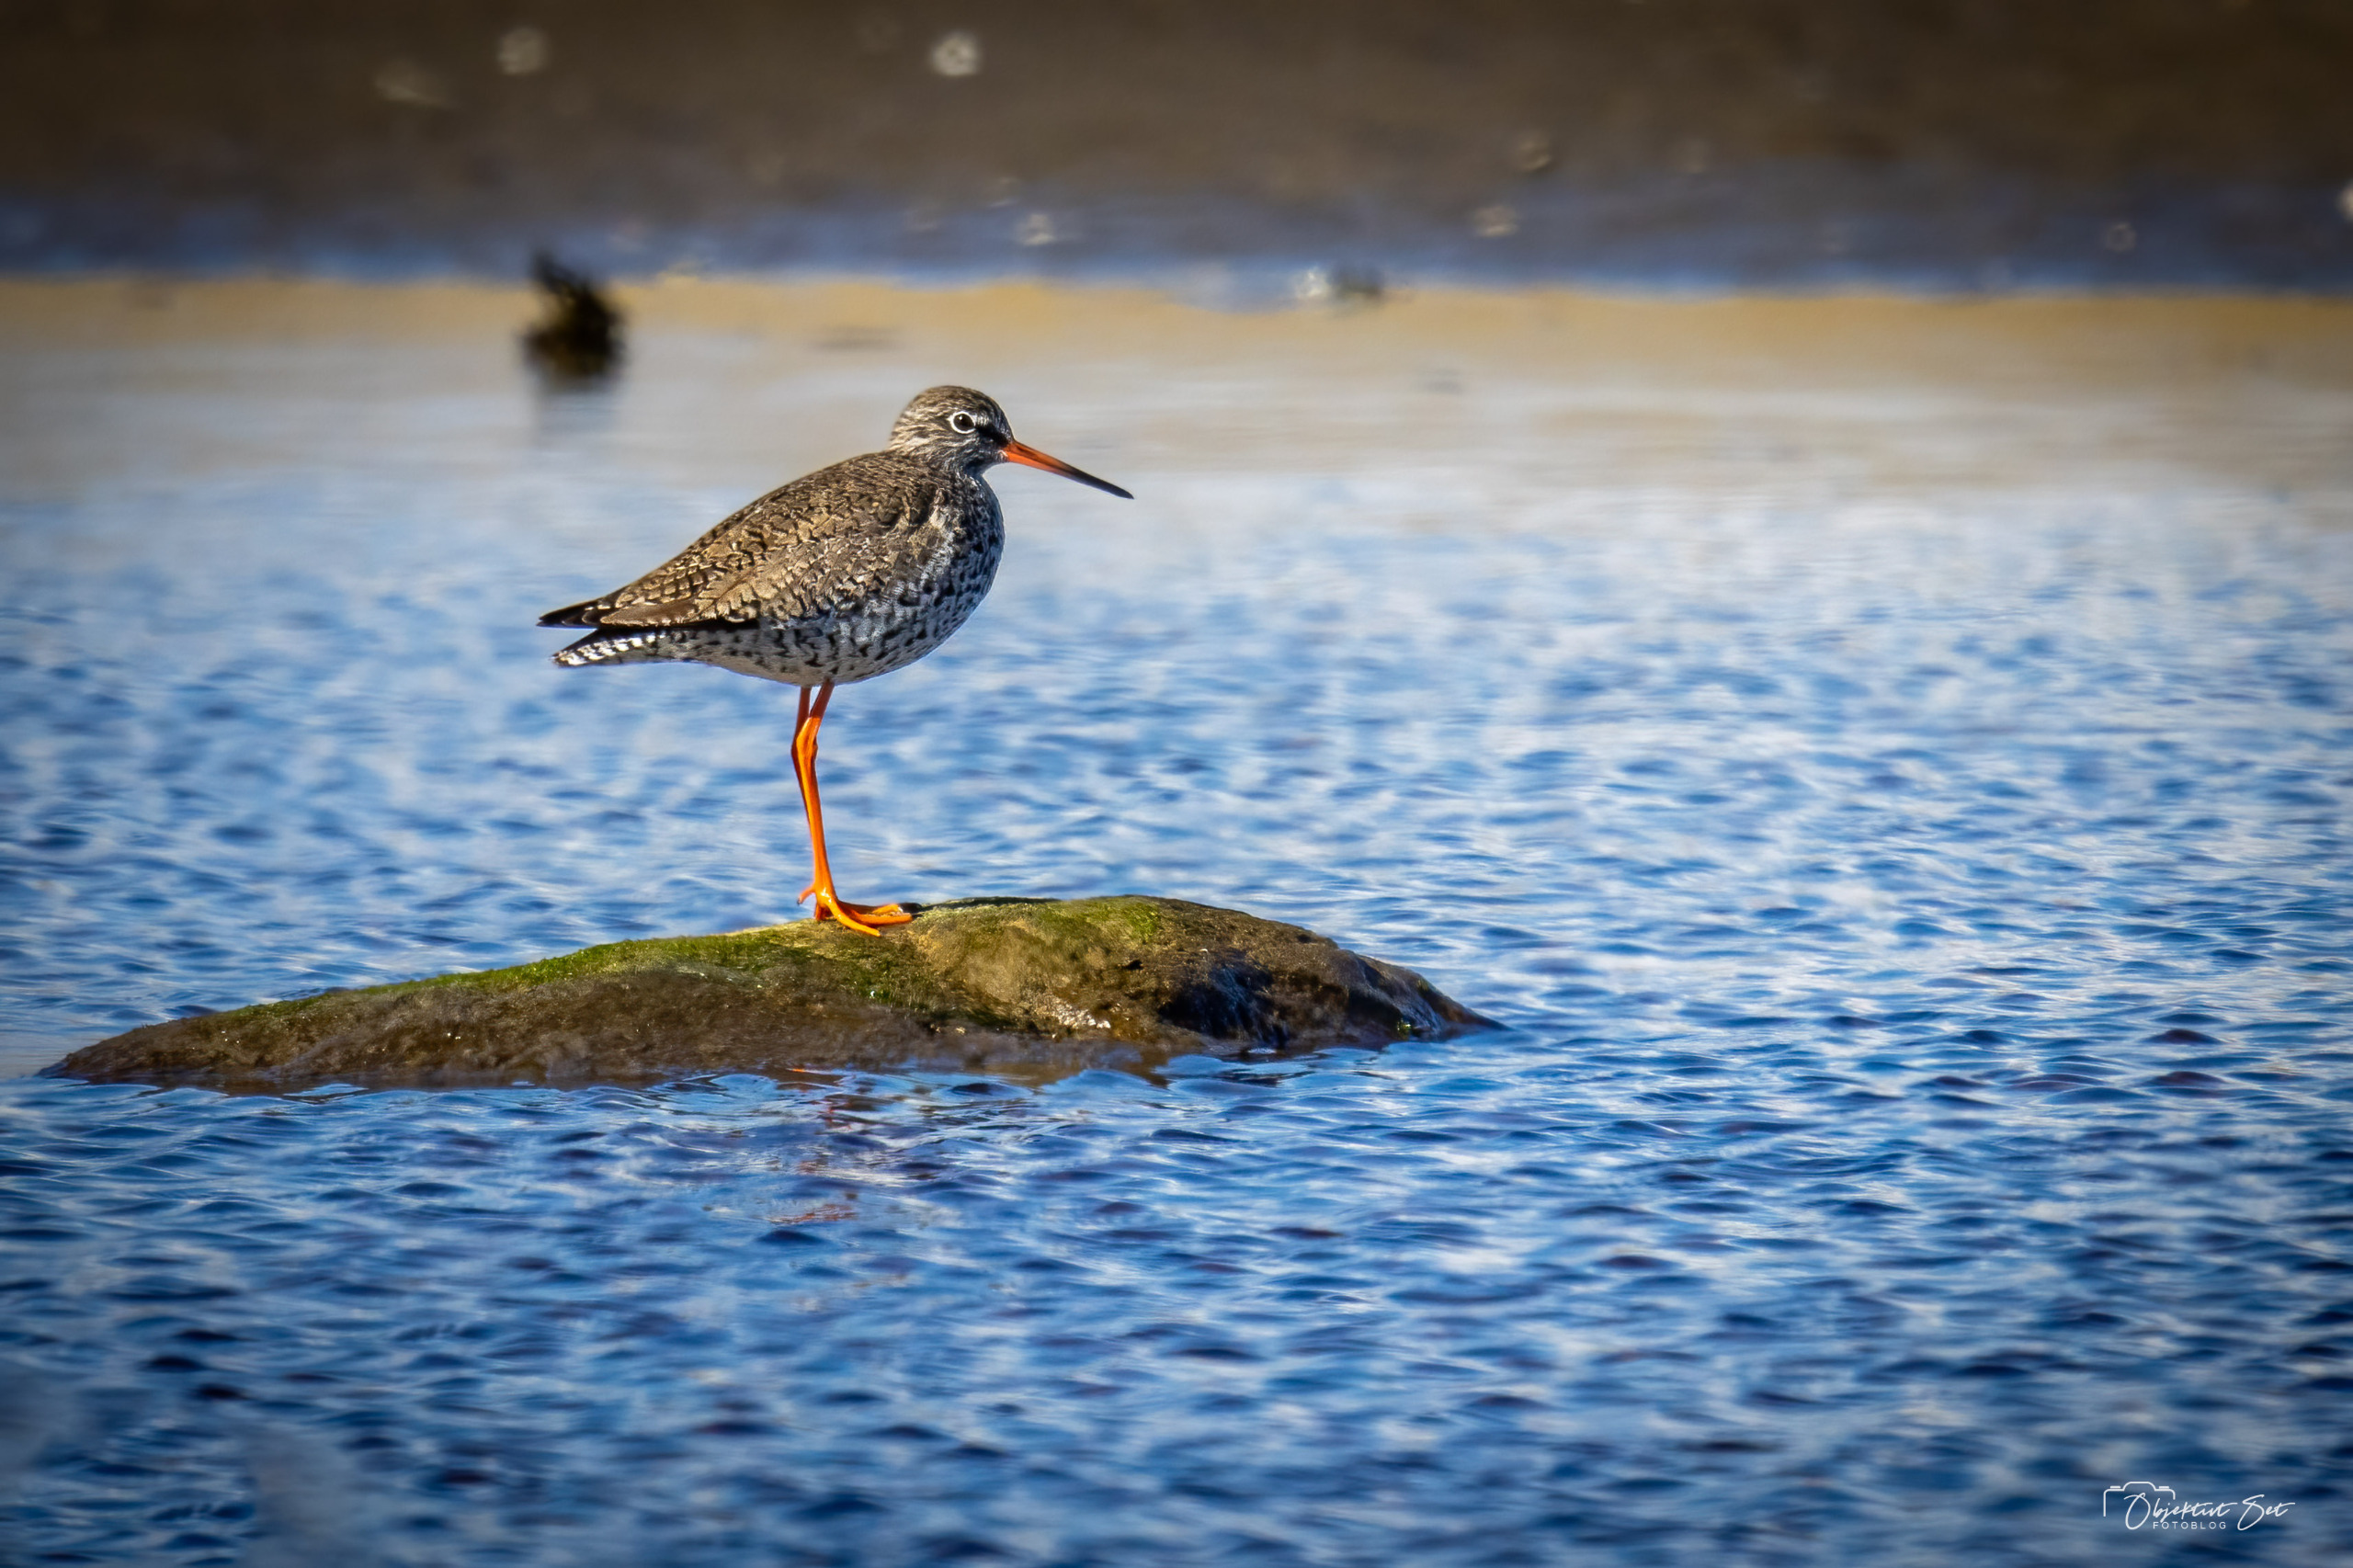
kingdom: Animalia
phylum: Chordata
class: Aves
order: Charadriiformes
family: Scolopacidae
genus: Tringa
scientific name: Tringa totanus
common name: Rødben
